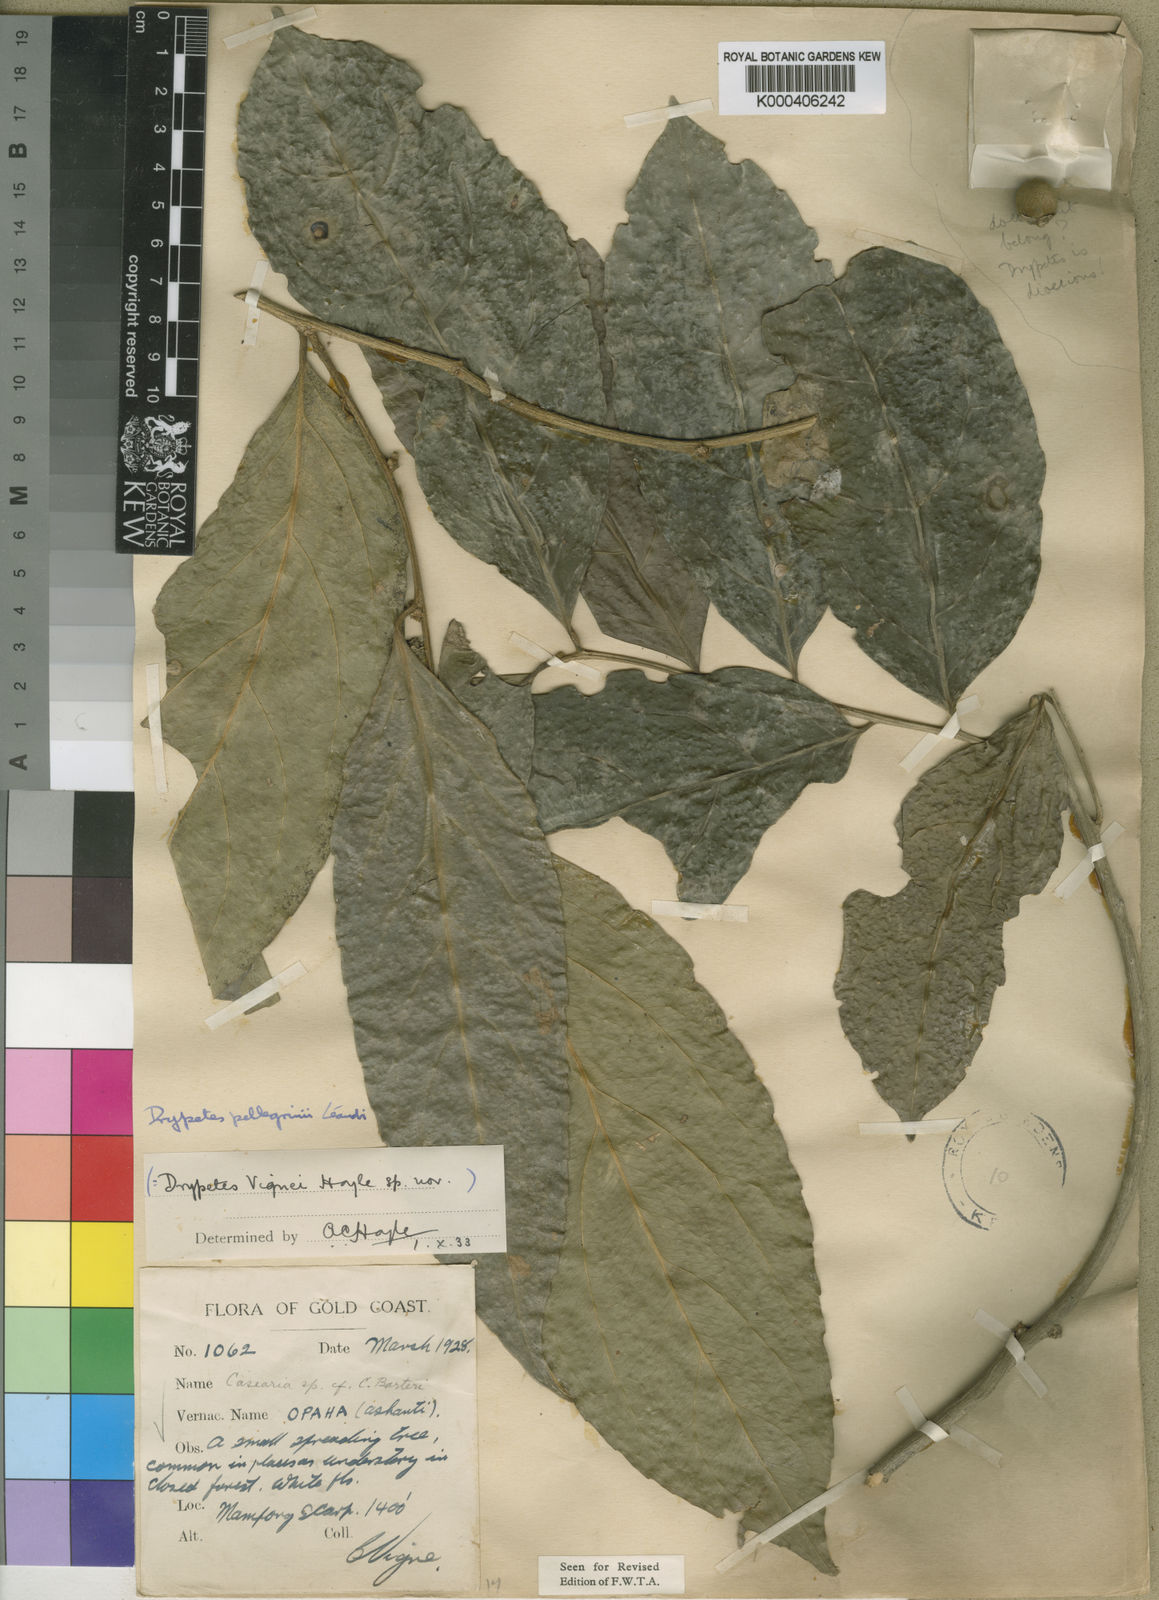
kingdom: Plantae
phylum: Tracheophyta
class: Magnoliopsida
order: Malpighiales
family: Putranjivaceae
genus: Drypetes
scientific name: Drypetes pellegrinii
